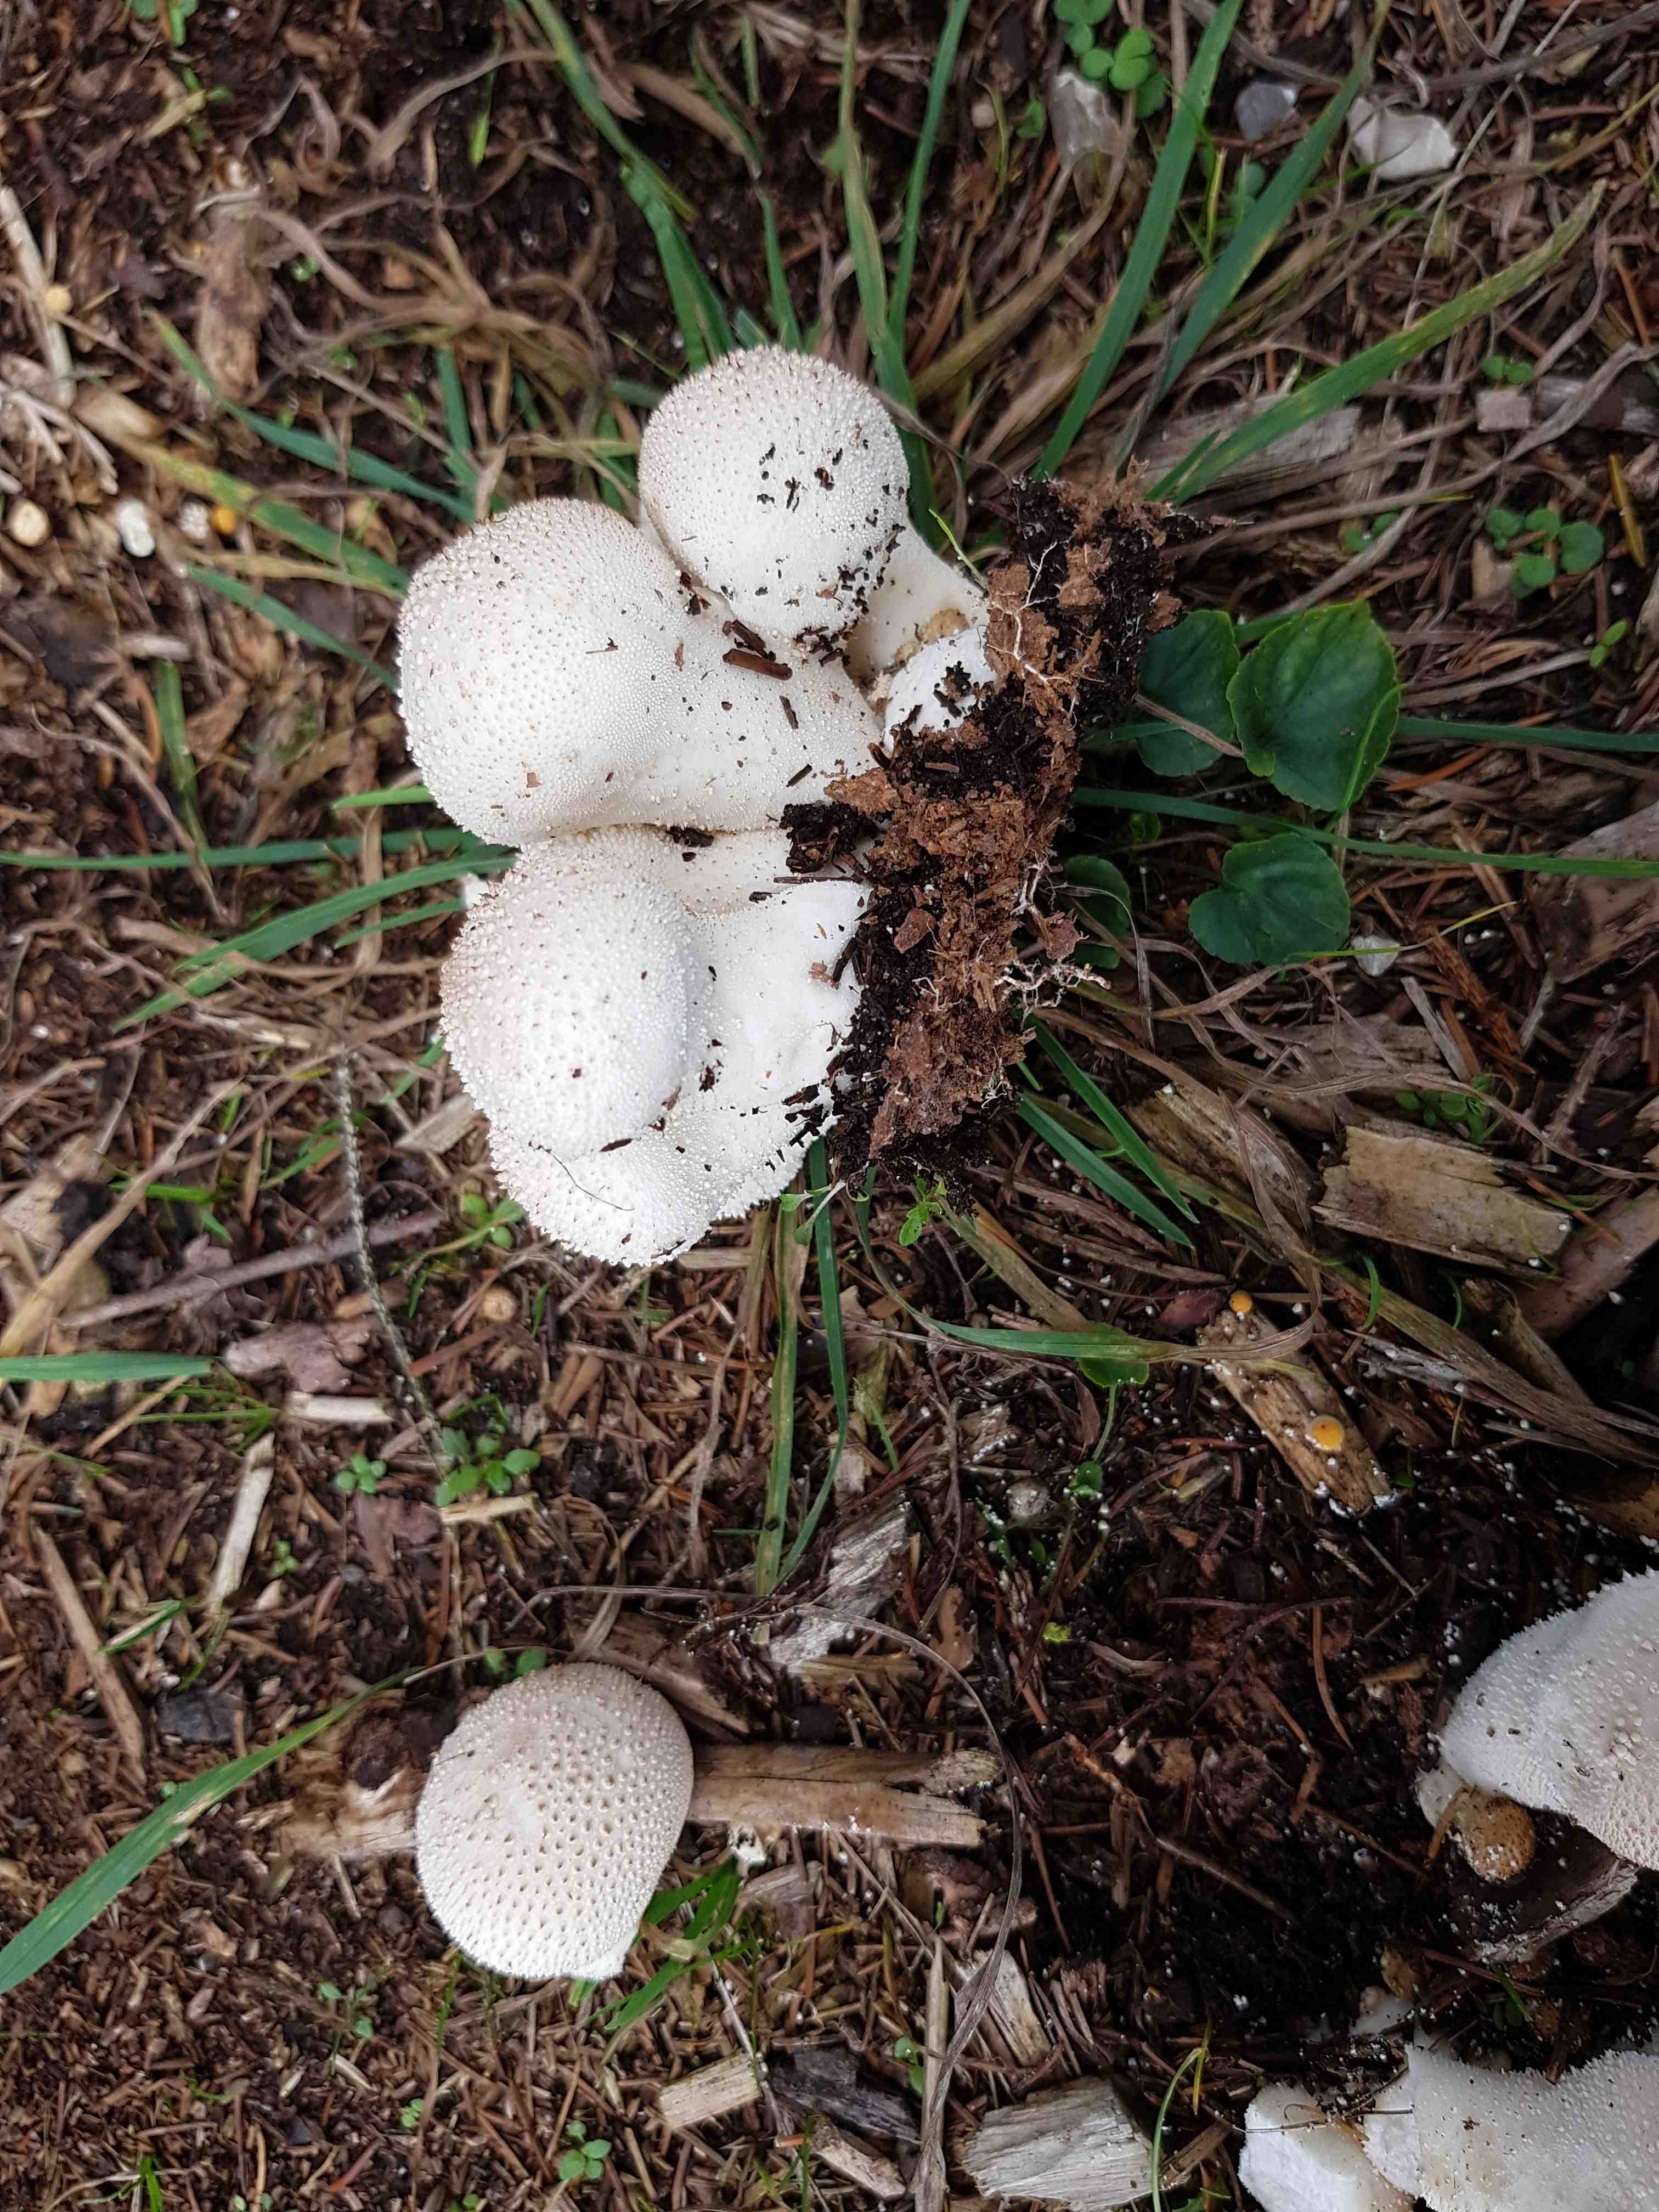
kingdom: Fungi
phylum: Basidiomycota
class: Agaricomycetes
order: Agaricales
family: Lycoperdaceae
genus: Lycoperdon
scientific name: Lycoperdon perlatum
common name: krystal-støvbold
